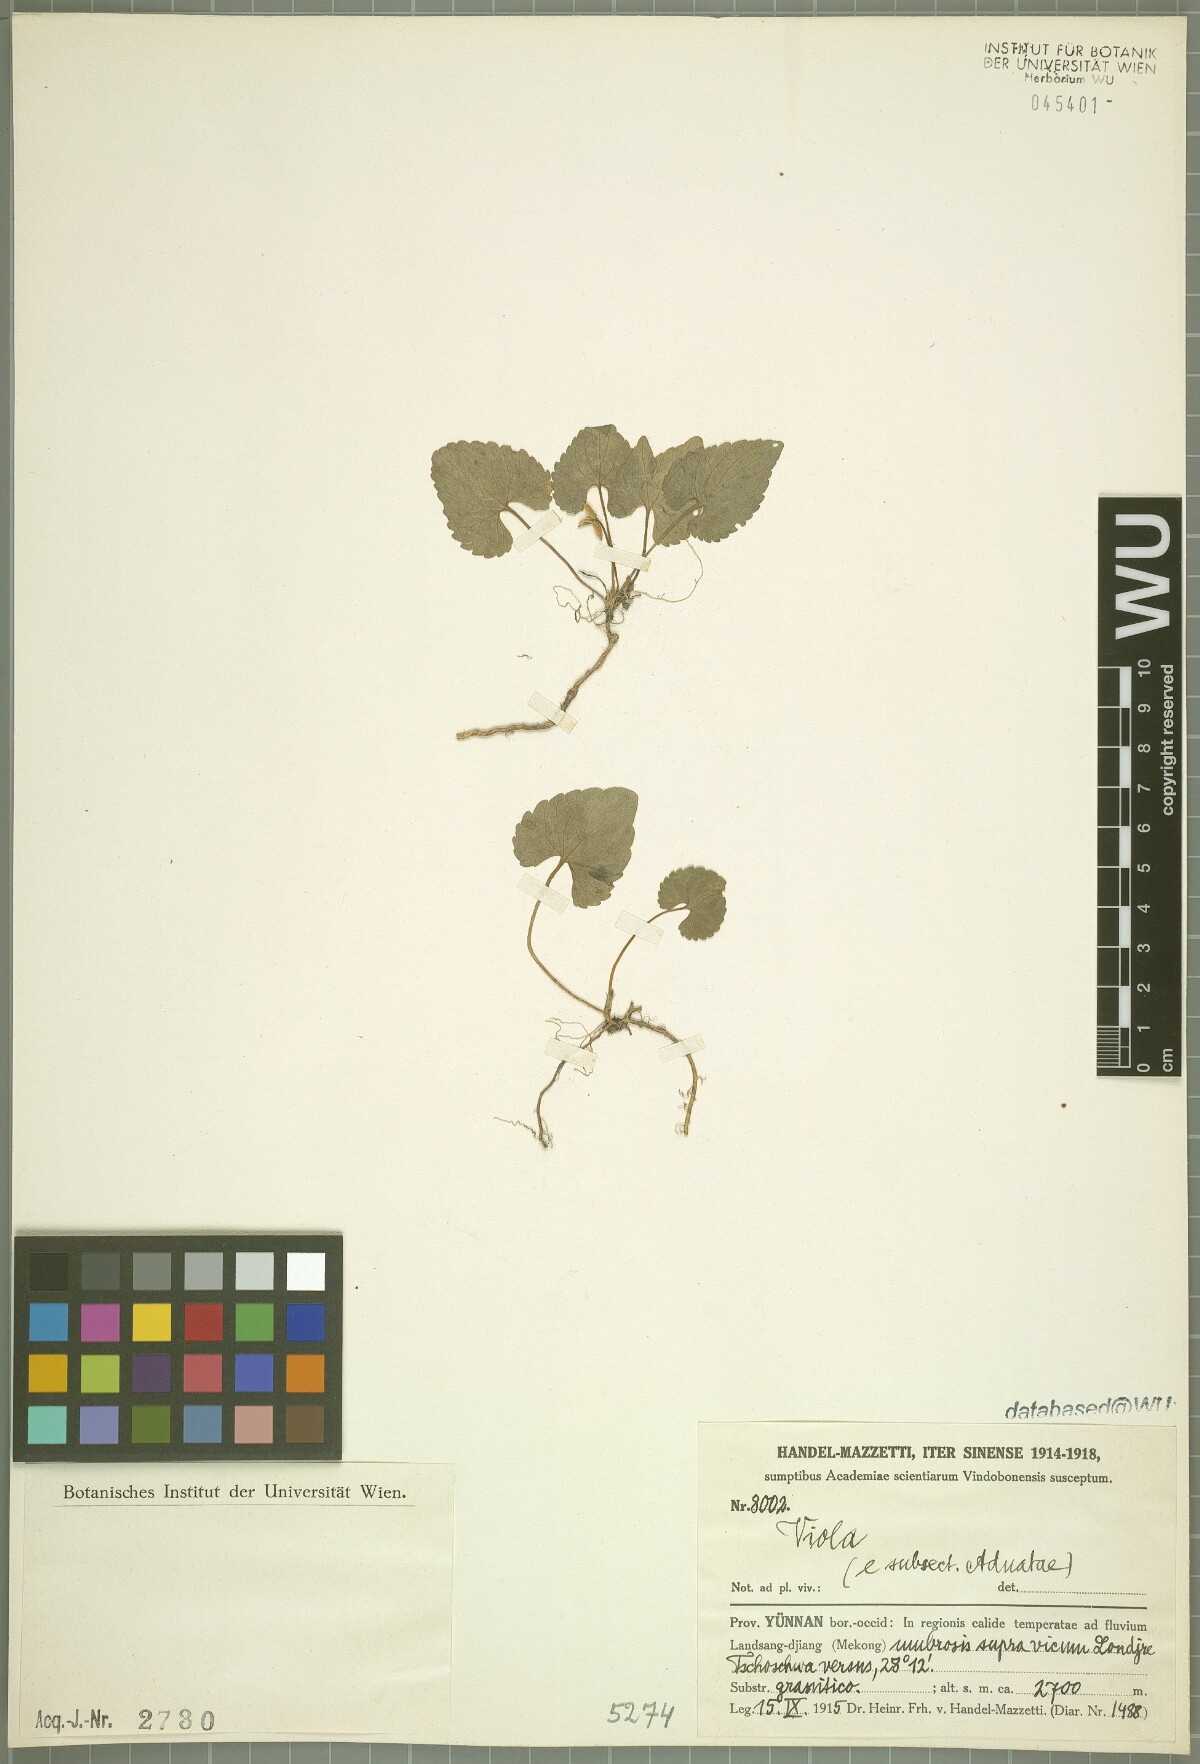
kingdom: Plantae
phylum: Tracheophyta
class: Magnoliopsida
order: Malpighiales
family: Violaceae
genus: Viola
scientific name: Viola
